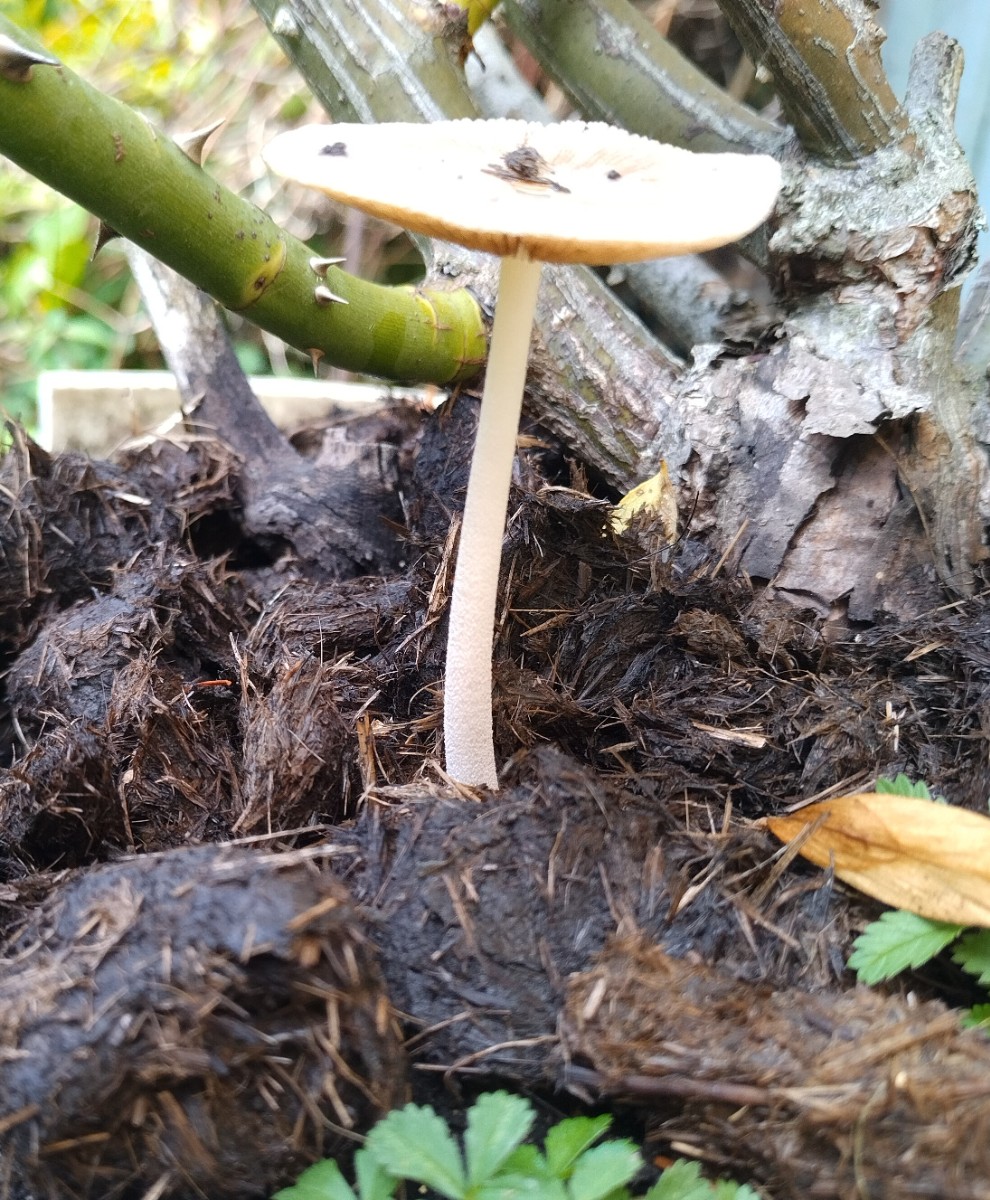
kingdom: Fungi
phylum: Basidiomycota
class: Agaricomycetes
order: Agaricales
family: Bolbitiaceae
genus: Bolbitius
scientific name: Bolbitius coprophilus
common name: rosa gulhat
